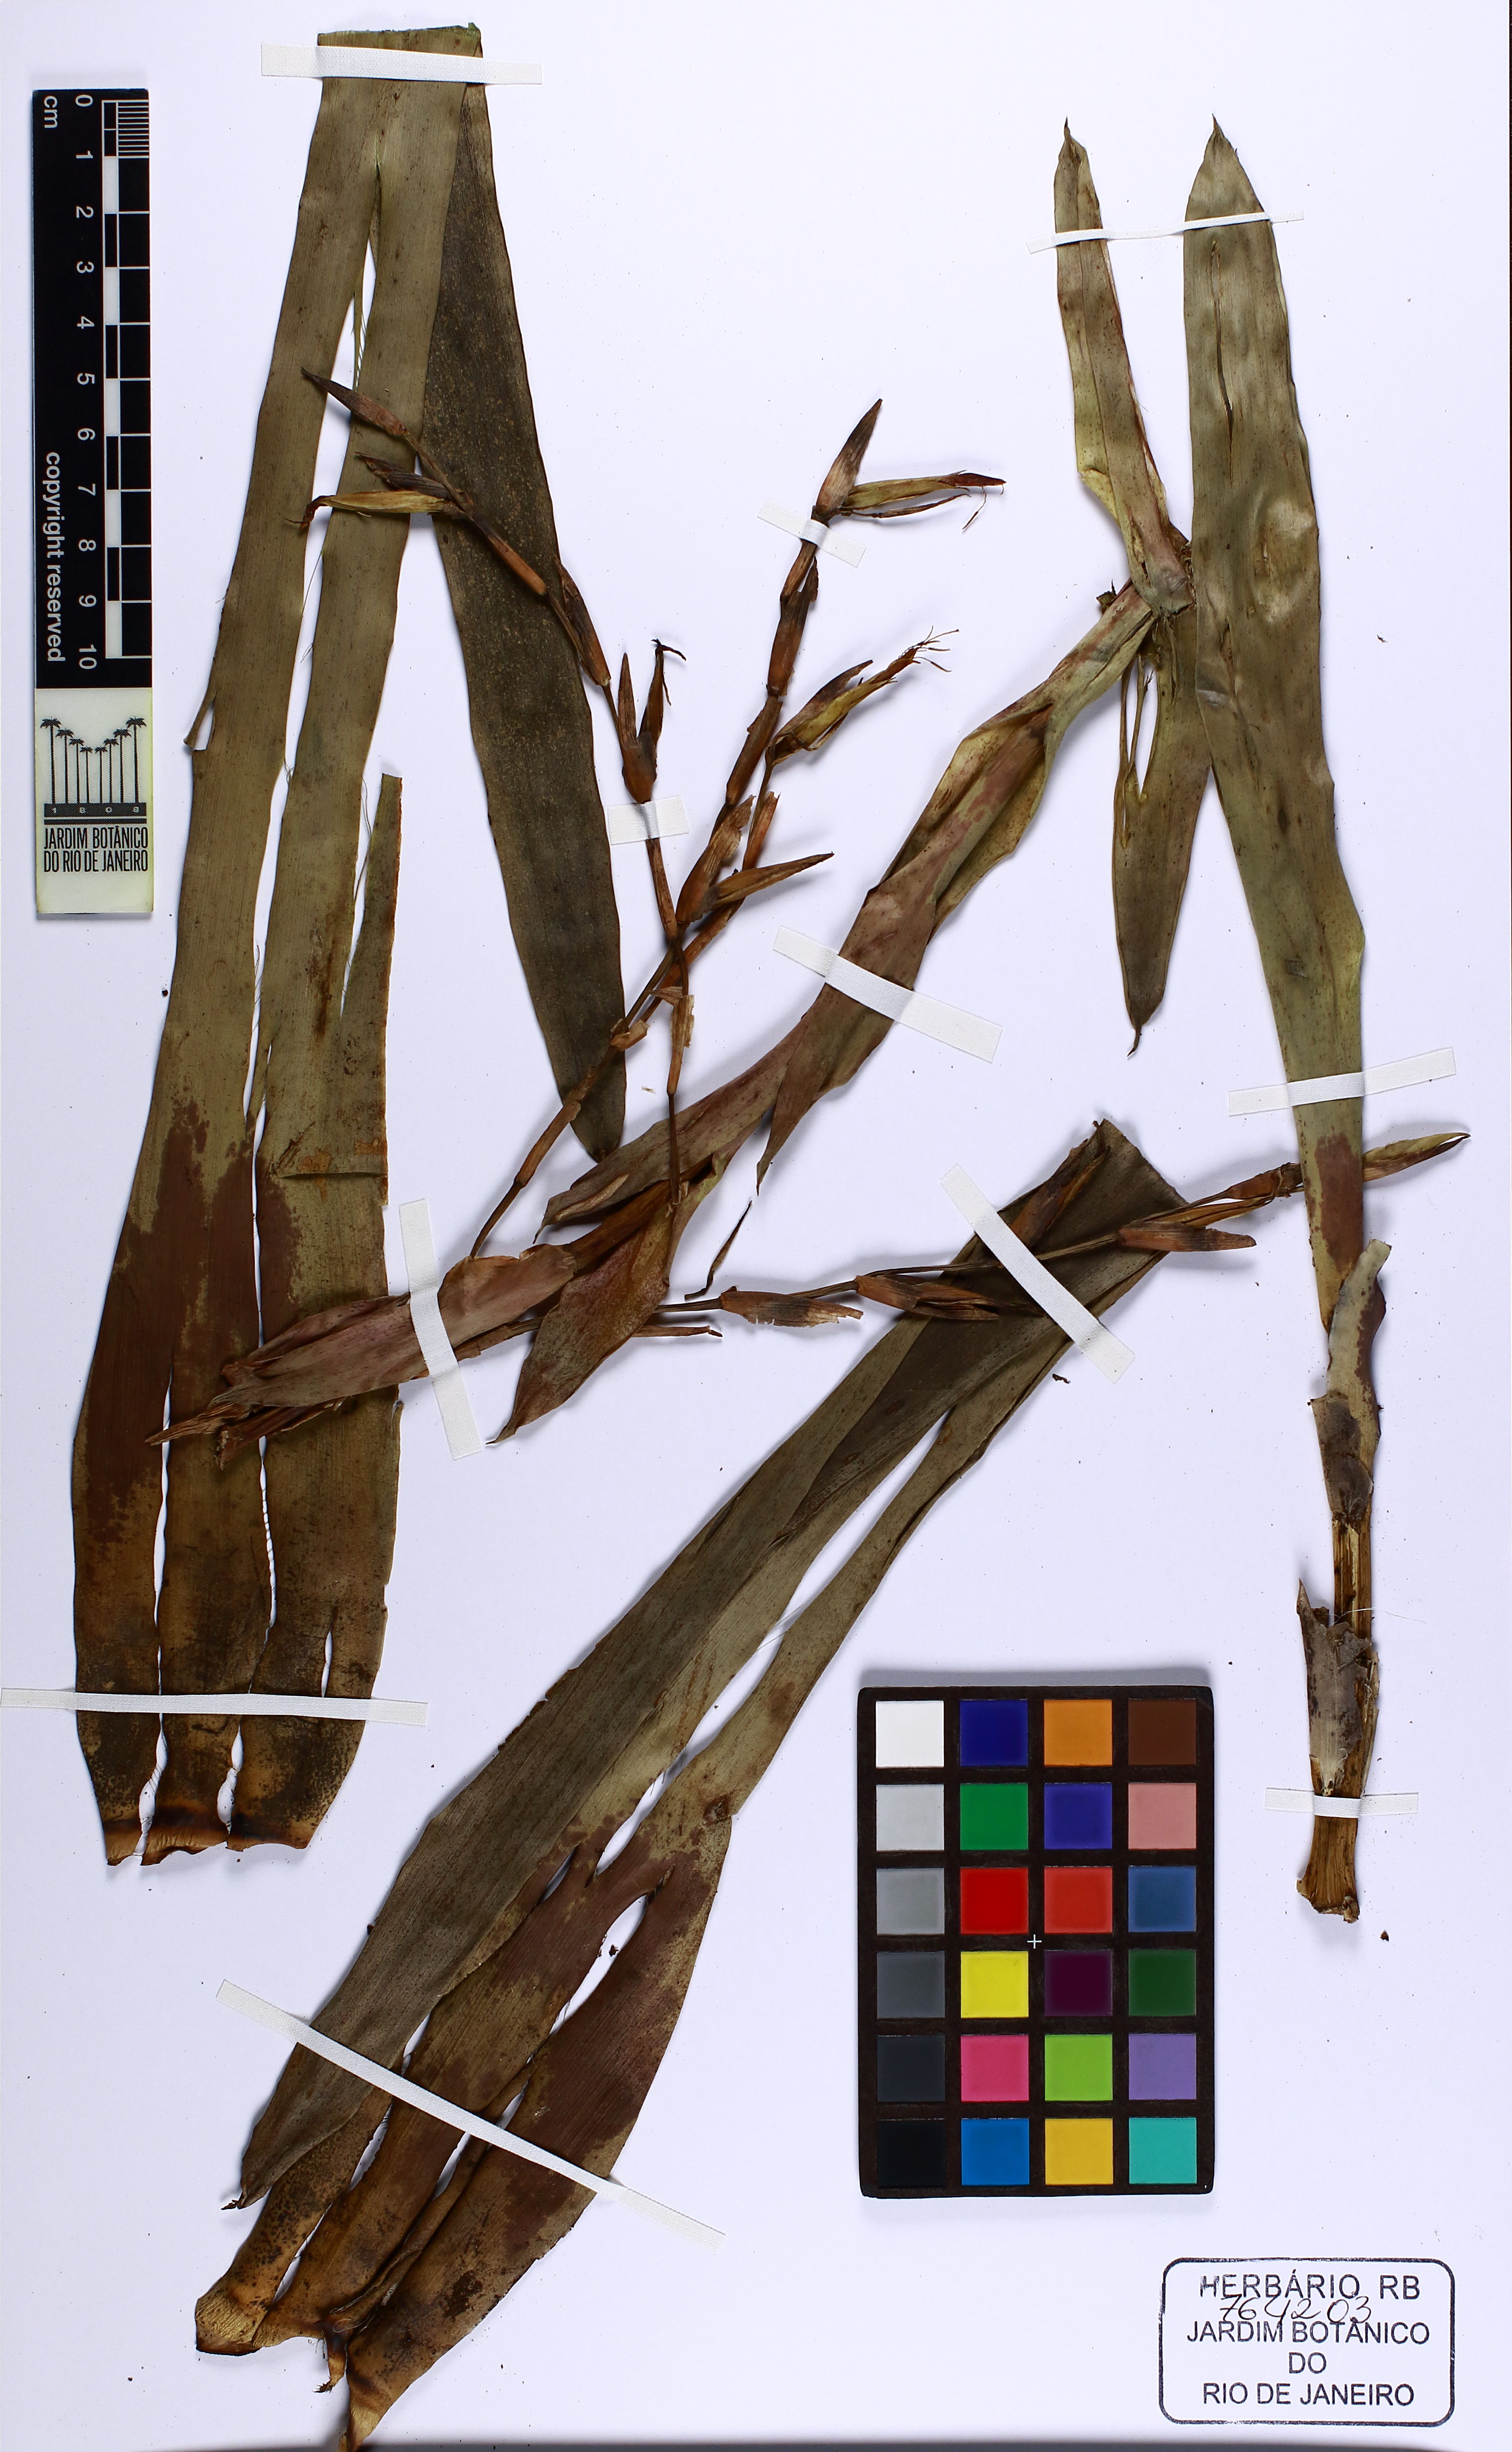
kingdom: Plantae
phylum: Tracheophyta
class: Liliopsida
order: Poales
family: Bromeliaceae
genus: Vriesea
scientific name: Vriesea procera
